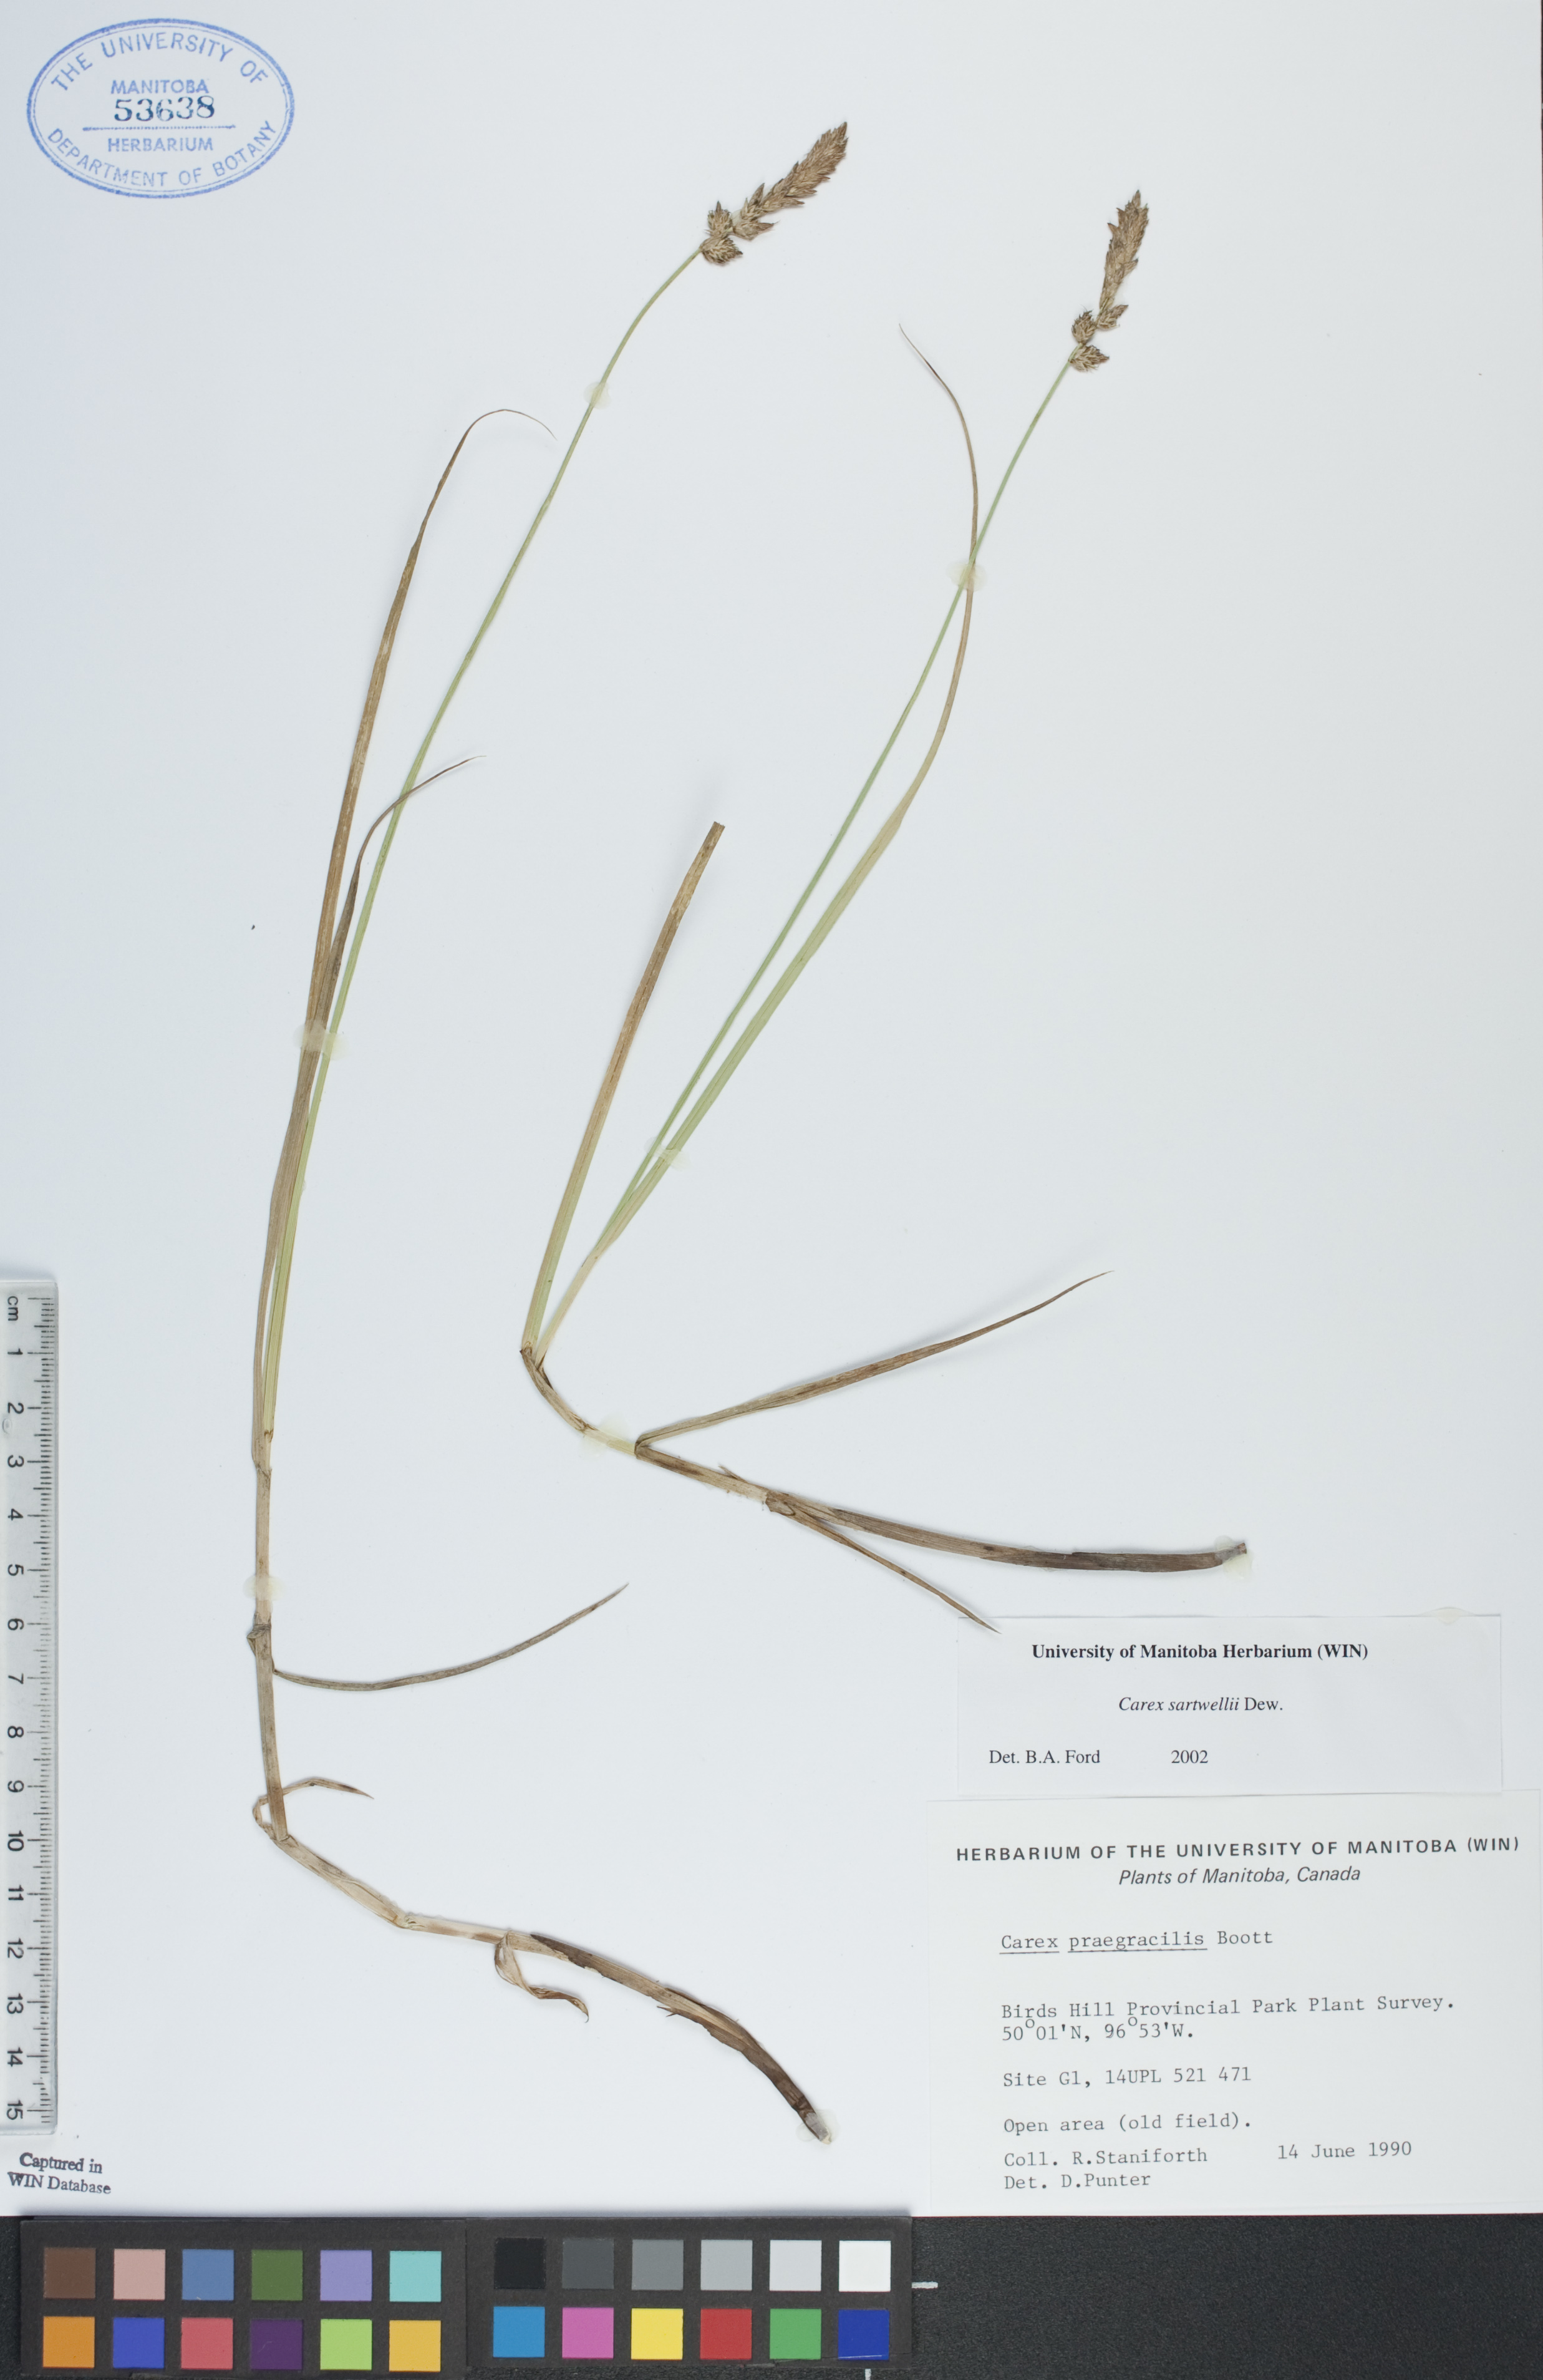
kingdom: Plantae
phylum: Tracheophyta
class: Liliopsida
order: Poales
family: Cyperaceae
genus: Carex
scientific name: Carex sartwellii
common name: Sartwell's sedge
